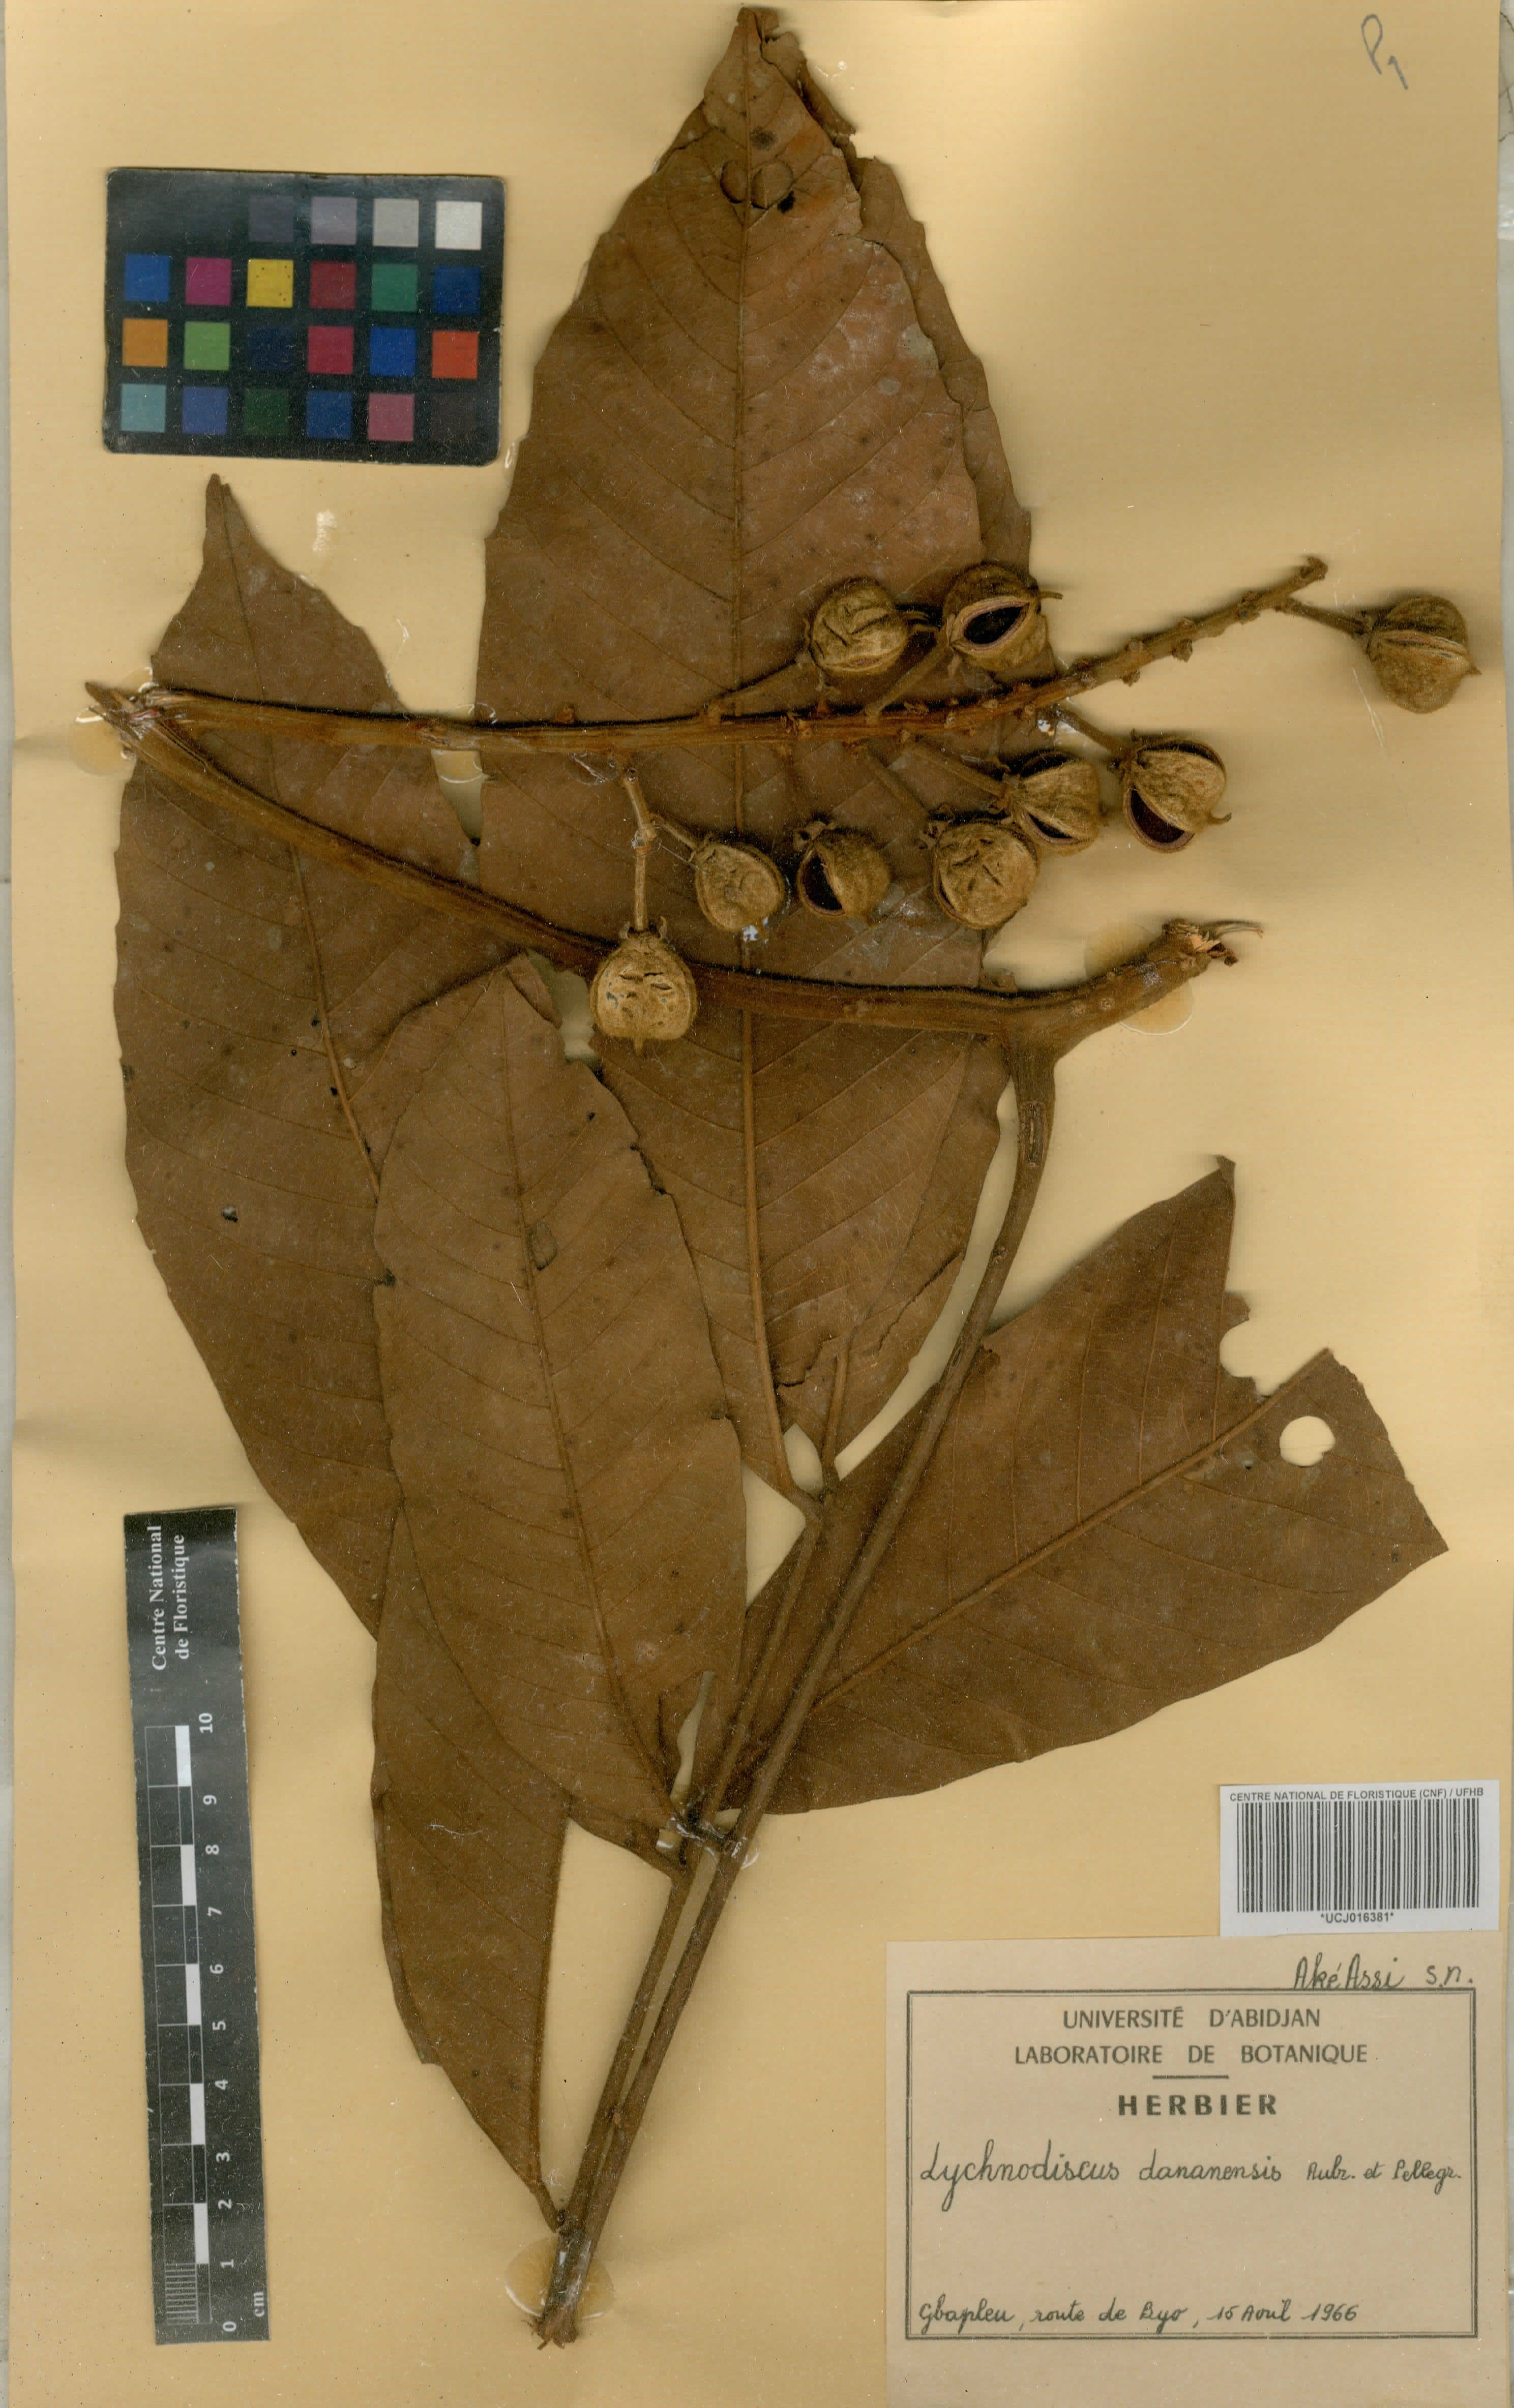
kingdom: Plantae
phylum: Tracheophyta
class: Magnoliopsida
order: Sapindales
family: Sapindaceae
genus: Lychnodiscus
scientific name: Lychnodiscus dananensis
